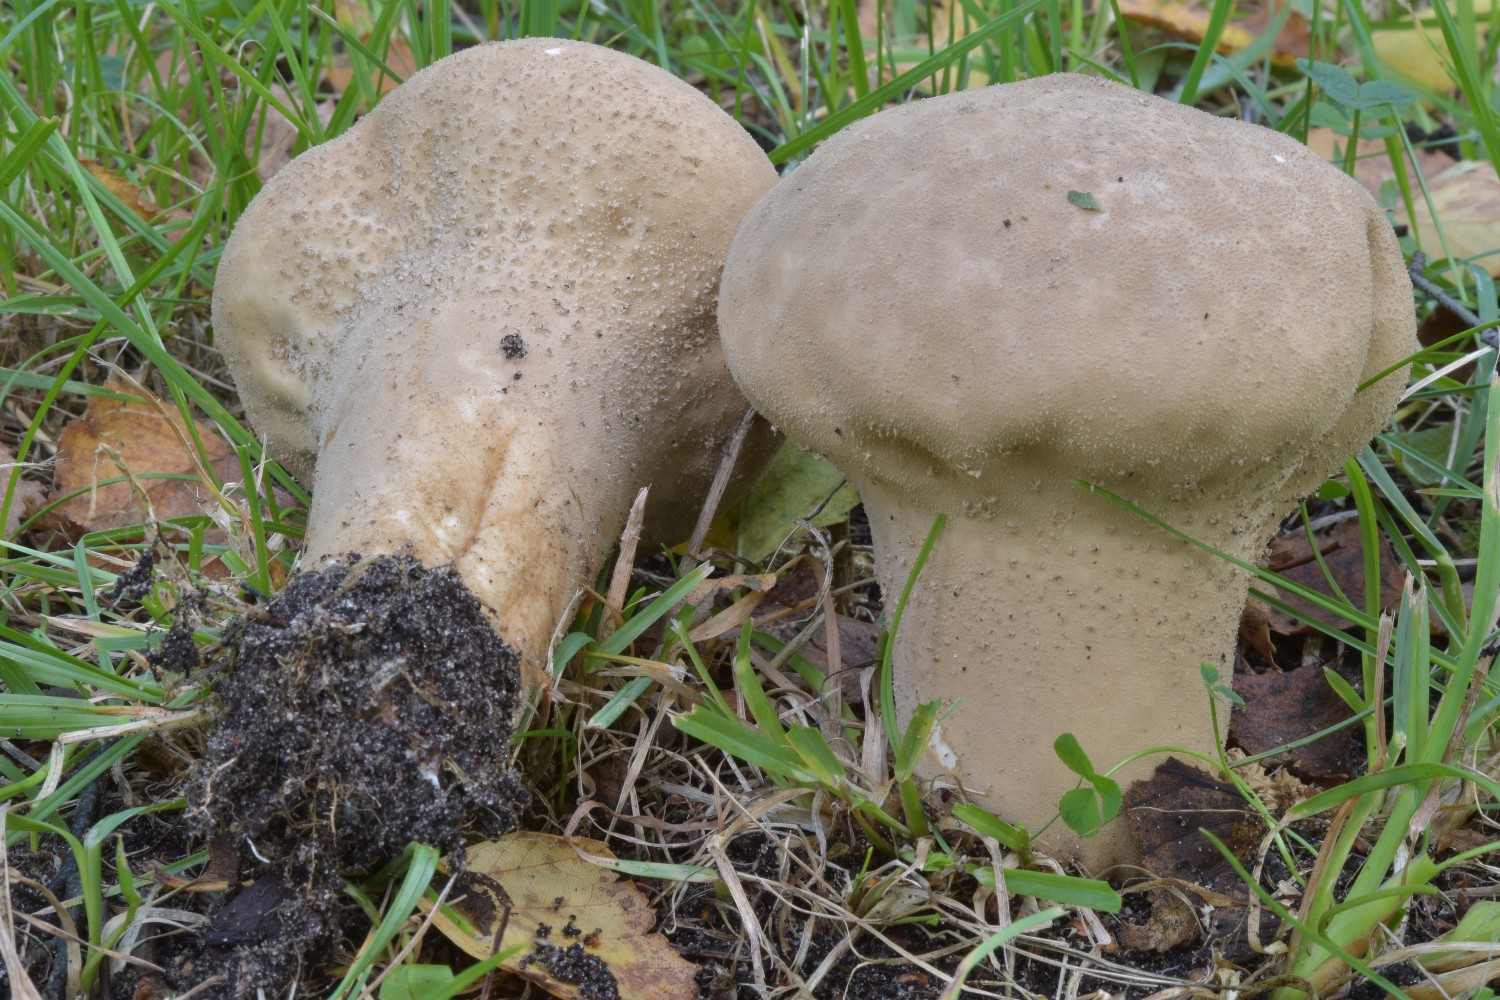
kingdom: Fungi
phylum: Basidiomycota
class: Agaricomycetes
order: Agaricales
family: Lycoperdaceae
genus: Lycoperdon
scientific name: Lycoperdon excipuliforme
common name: højstokket støvbold
